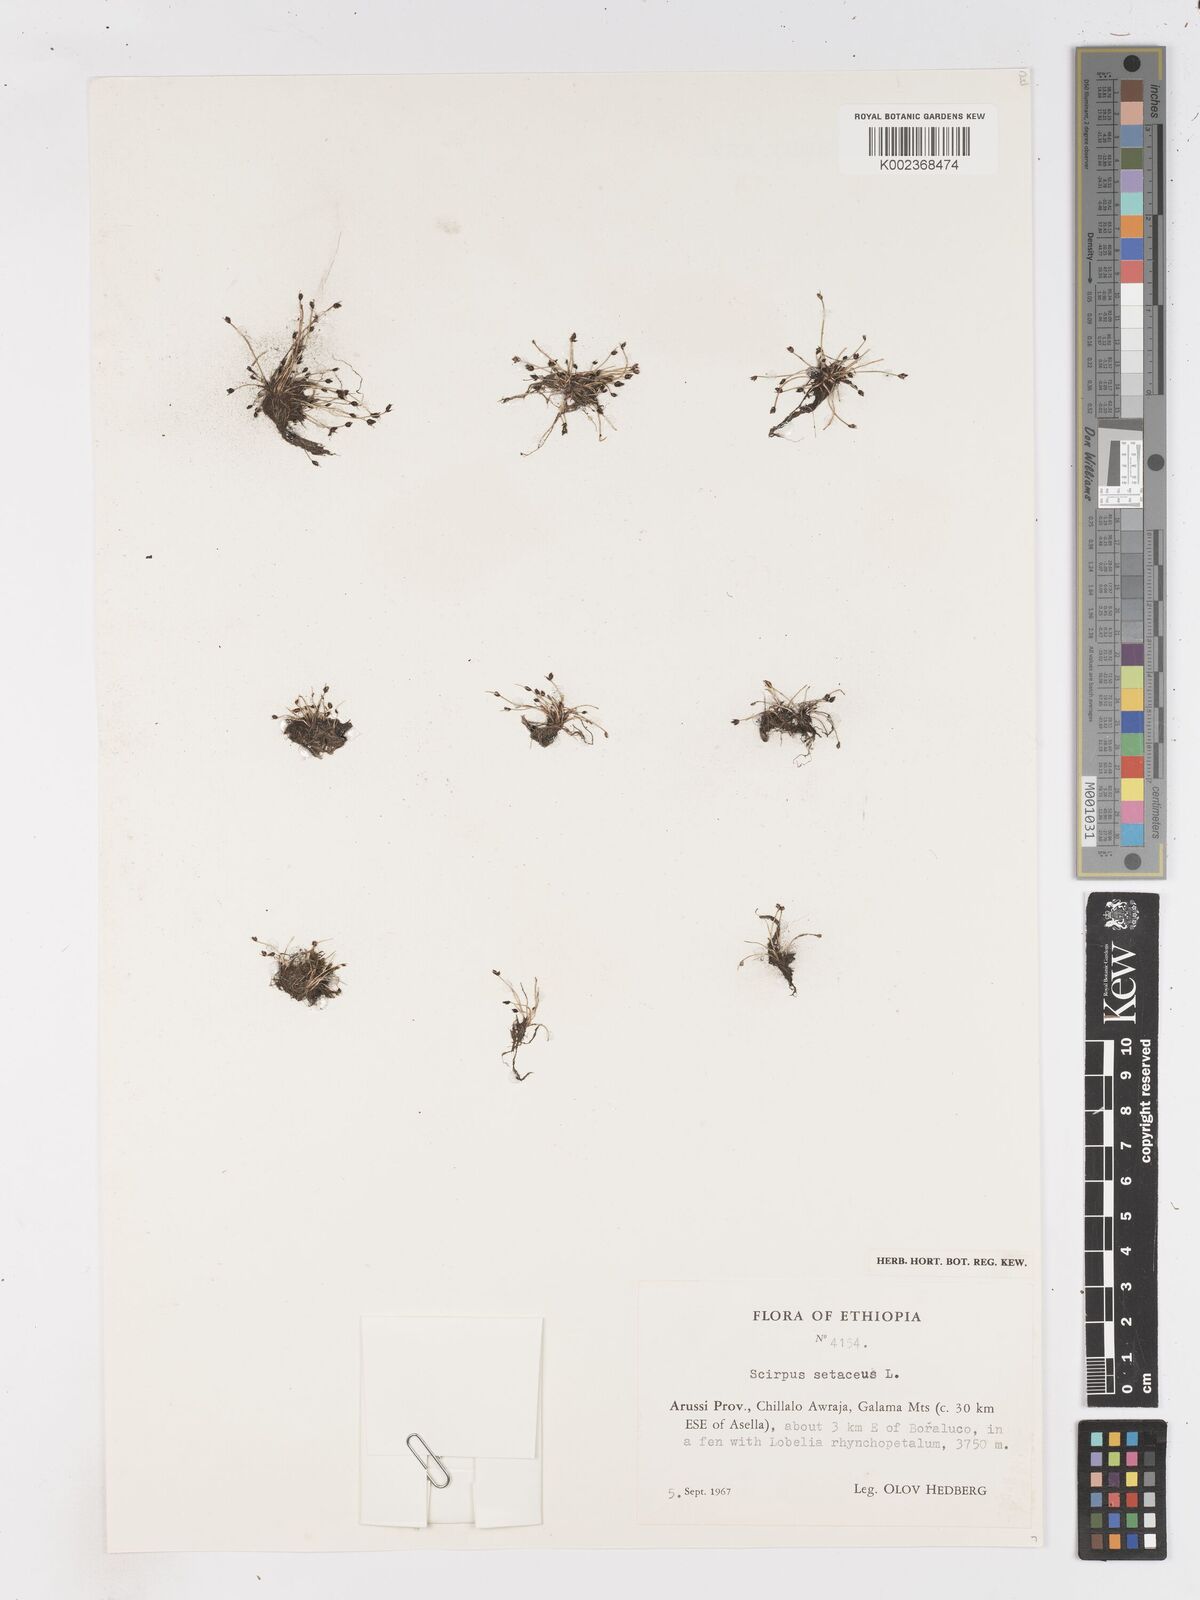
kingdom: Plantae
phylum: Tracheophyta
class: Liliopsida
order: Poales
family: Cyperaceae
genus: Isolepis
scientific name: Isolepis setacea
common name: Bristle club-rush
